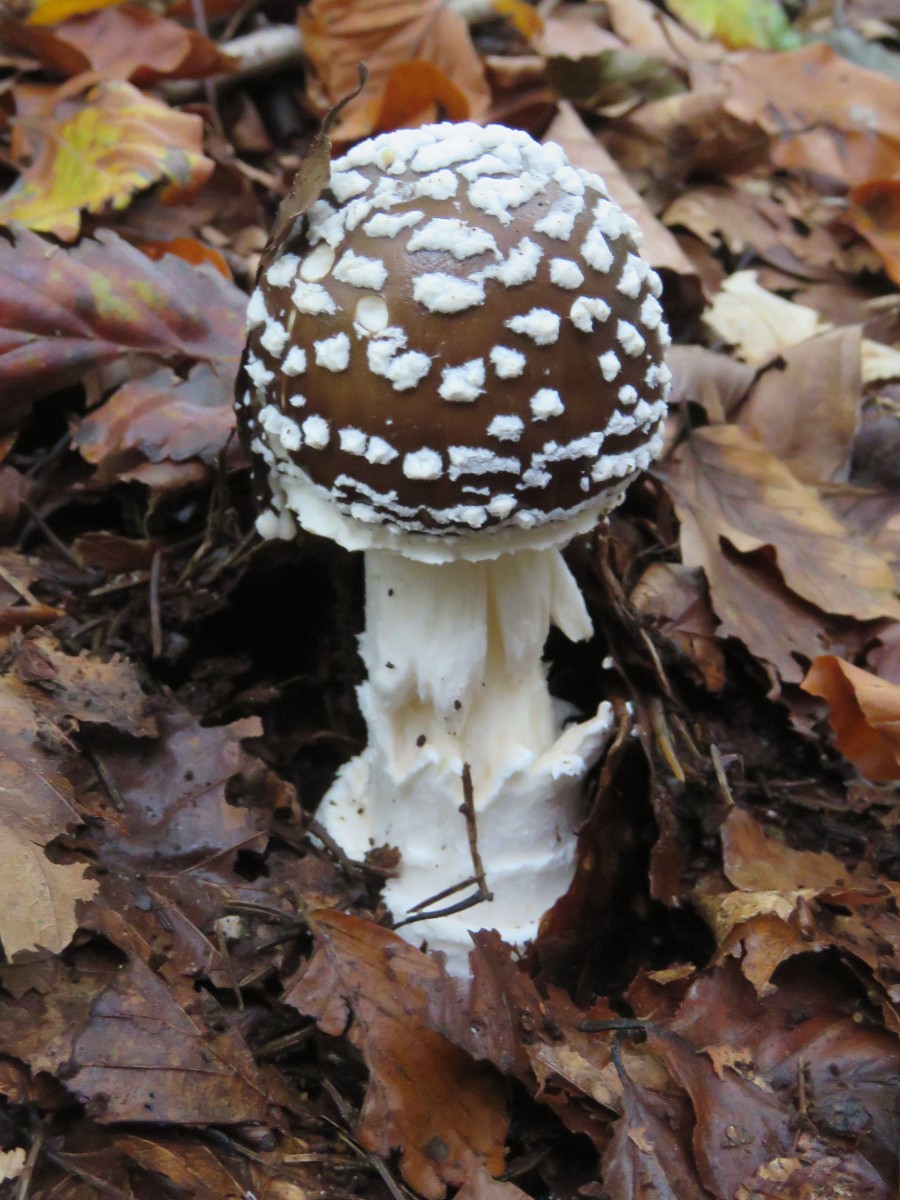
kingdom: Fungi
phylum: Basidiomycota
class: Agaricomycetes
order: Agaricales
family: Amanitaceae
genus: Amanita
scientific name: Amanita pantherina
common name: panter-fluesvamp
